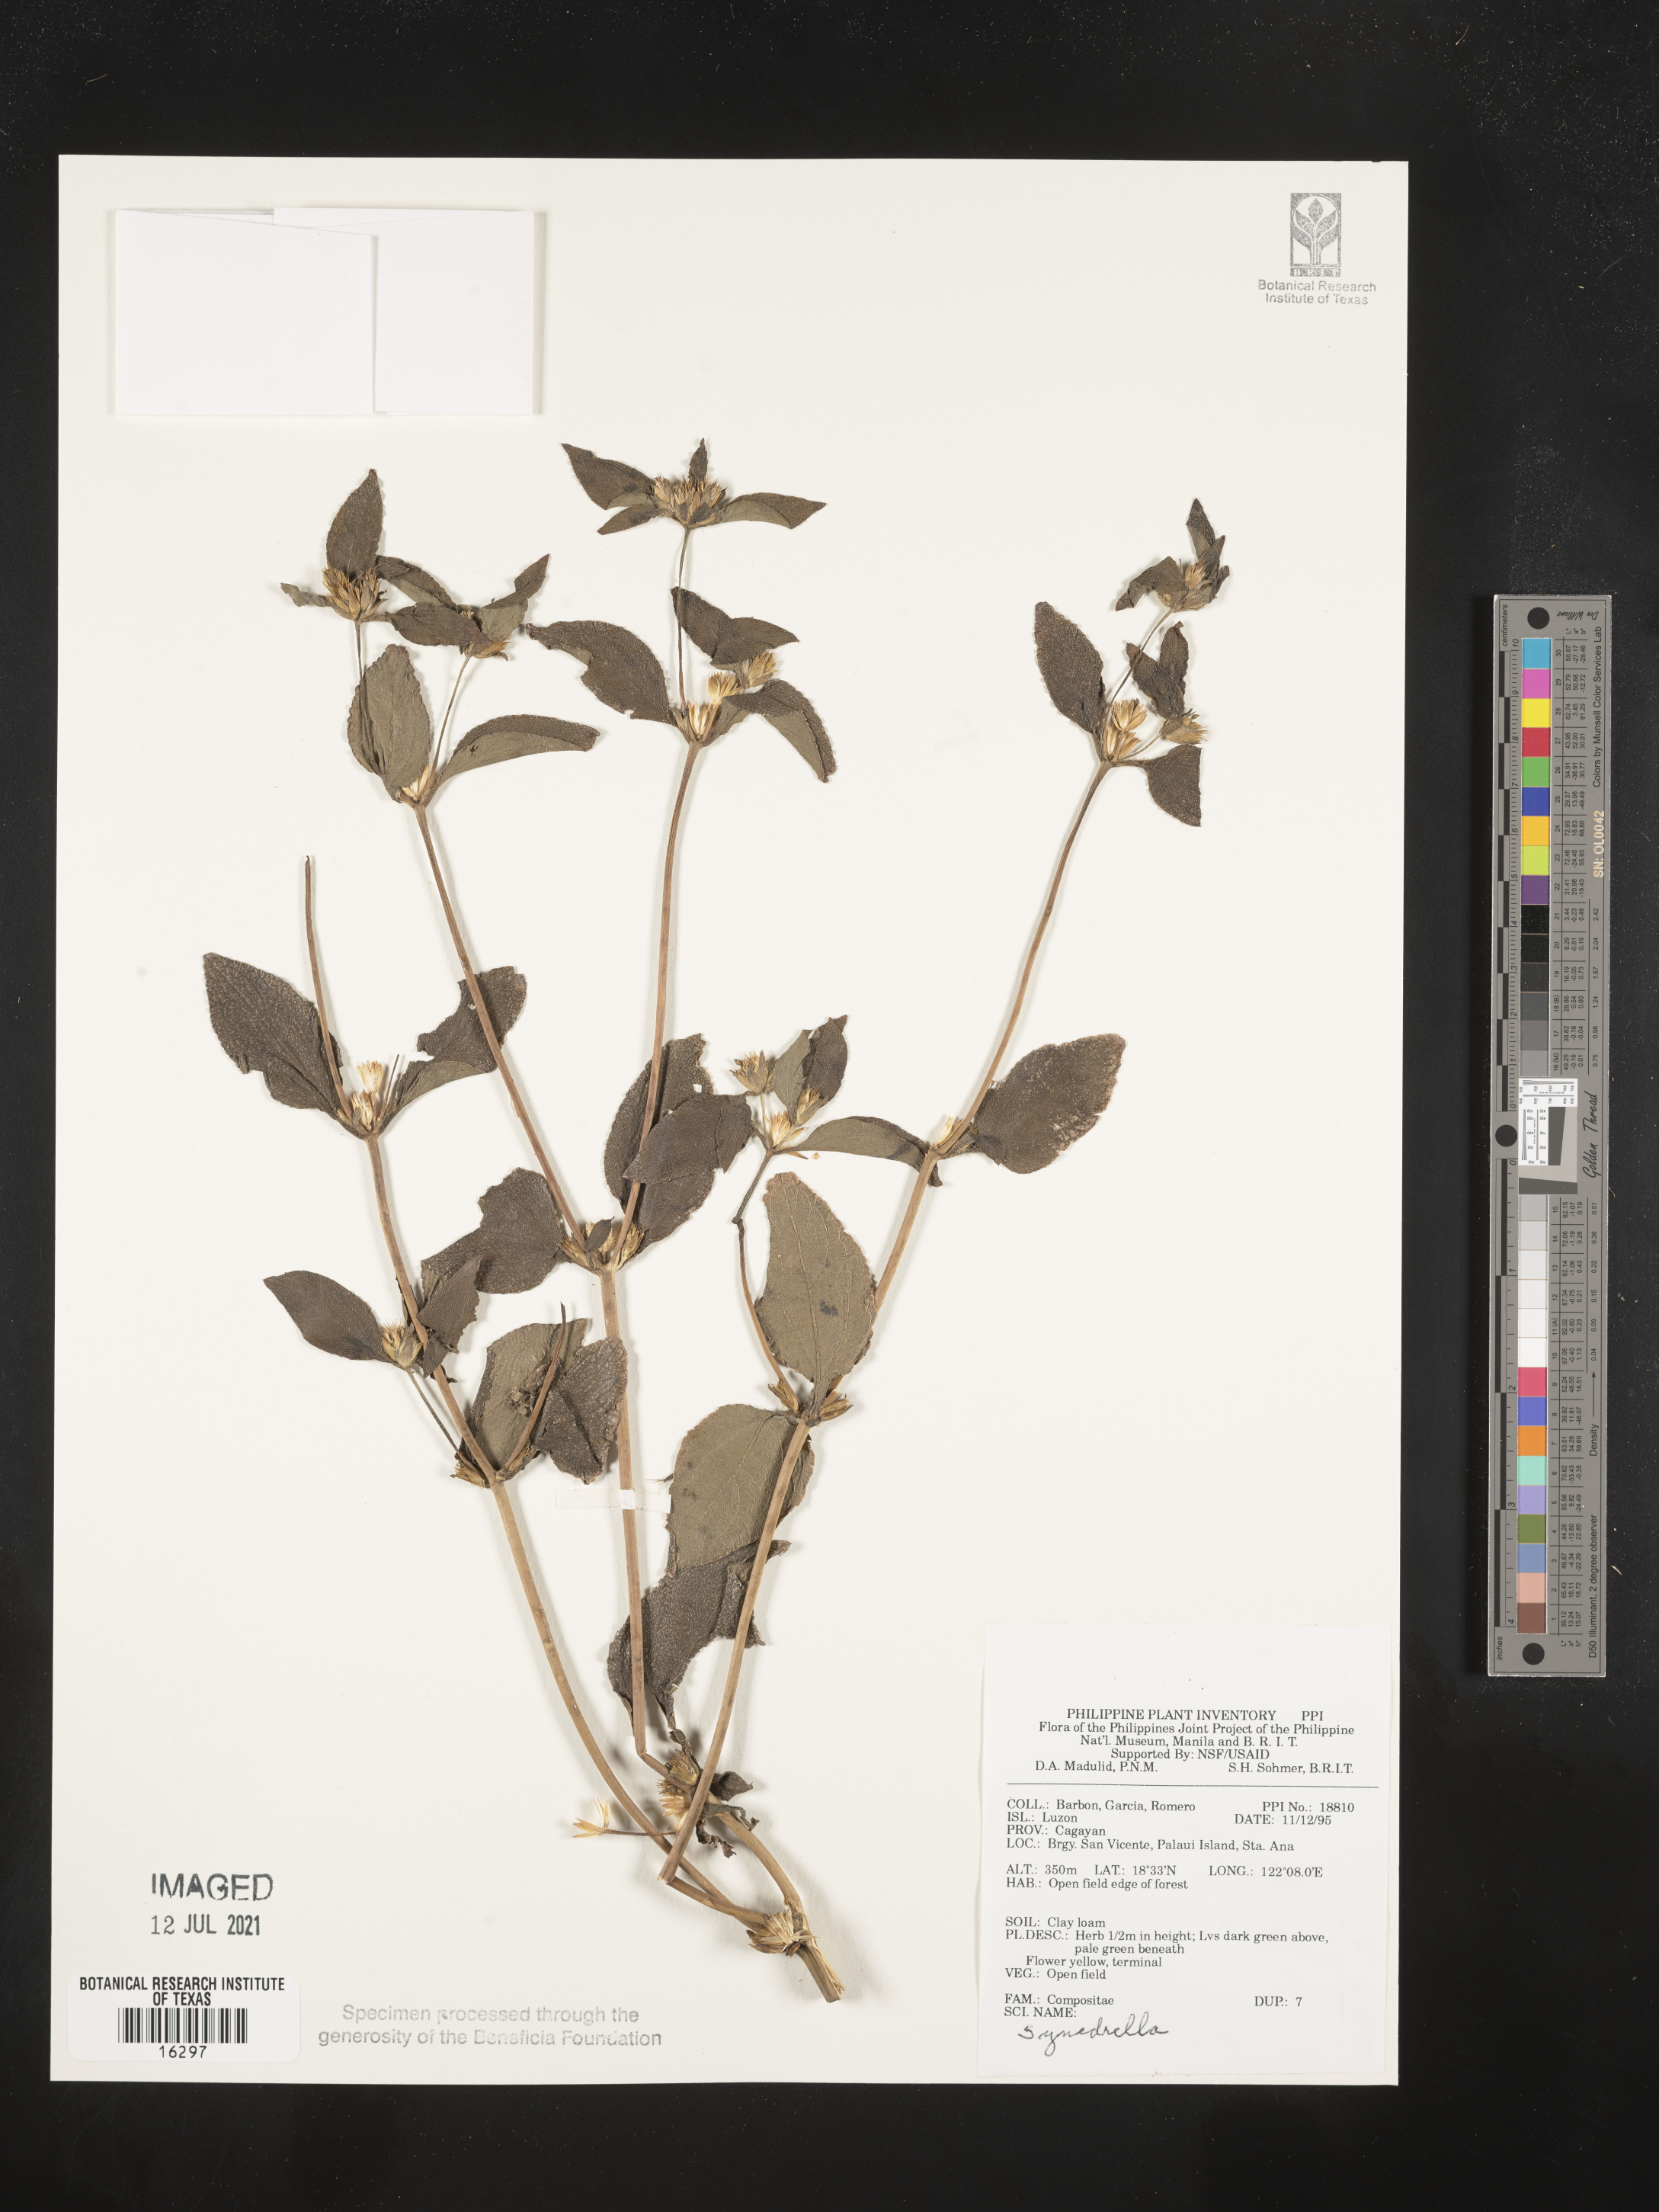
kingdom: Plantae
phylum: Tracheophyta
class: Magnoliopsida
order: Asterales
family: Asteraceae
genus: Synedrella
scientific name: Synedrella
